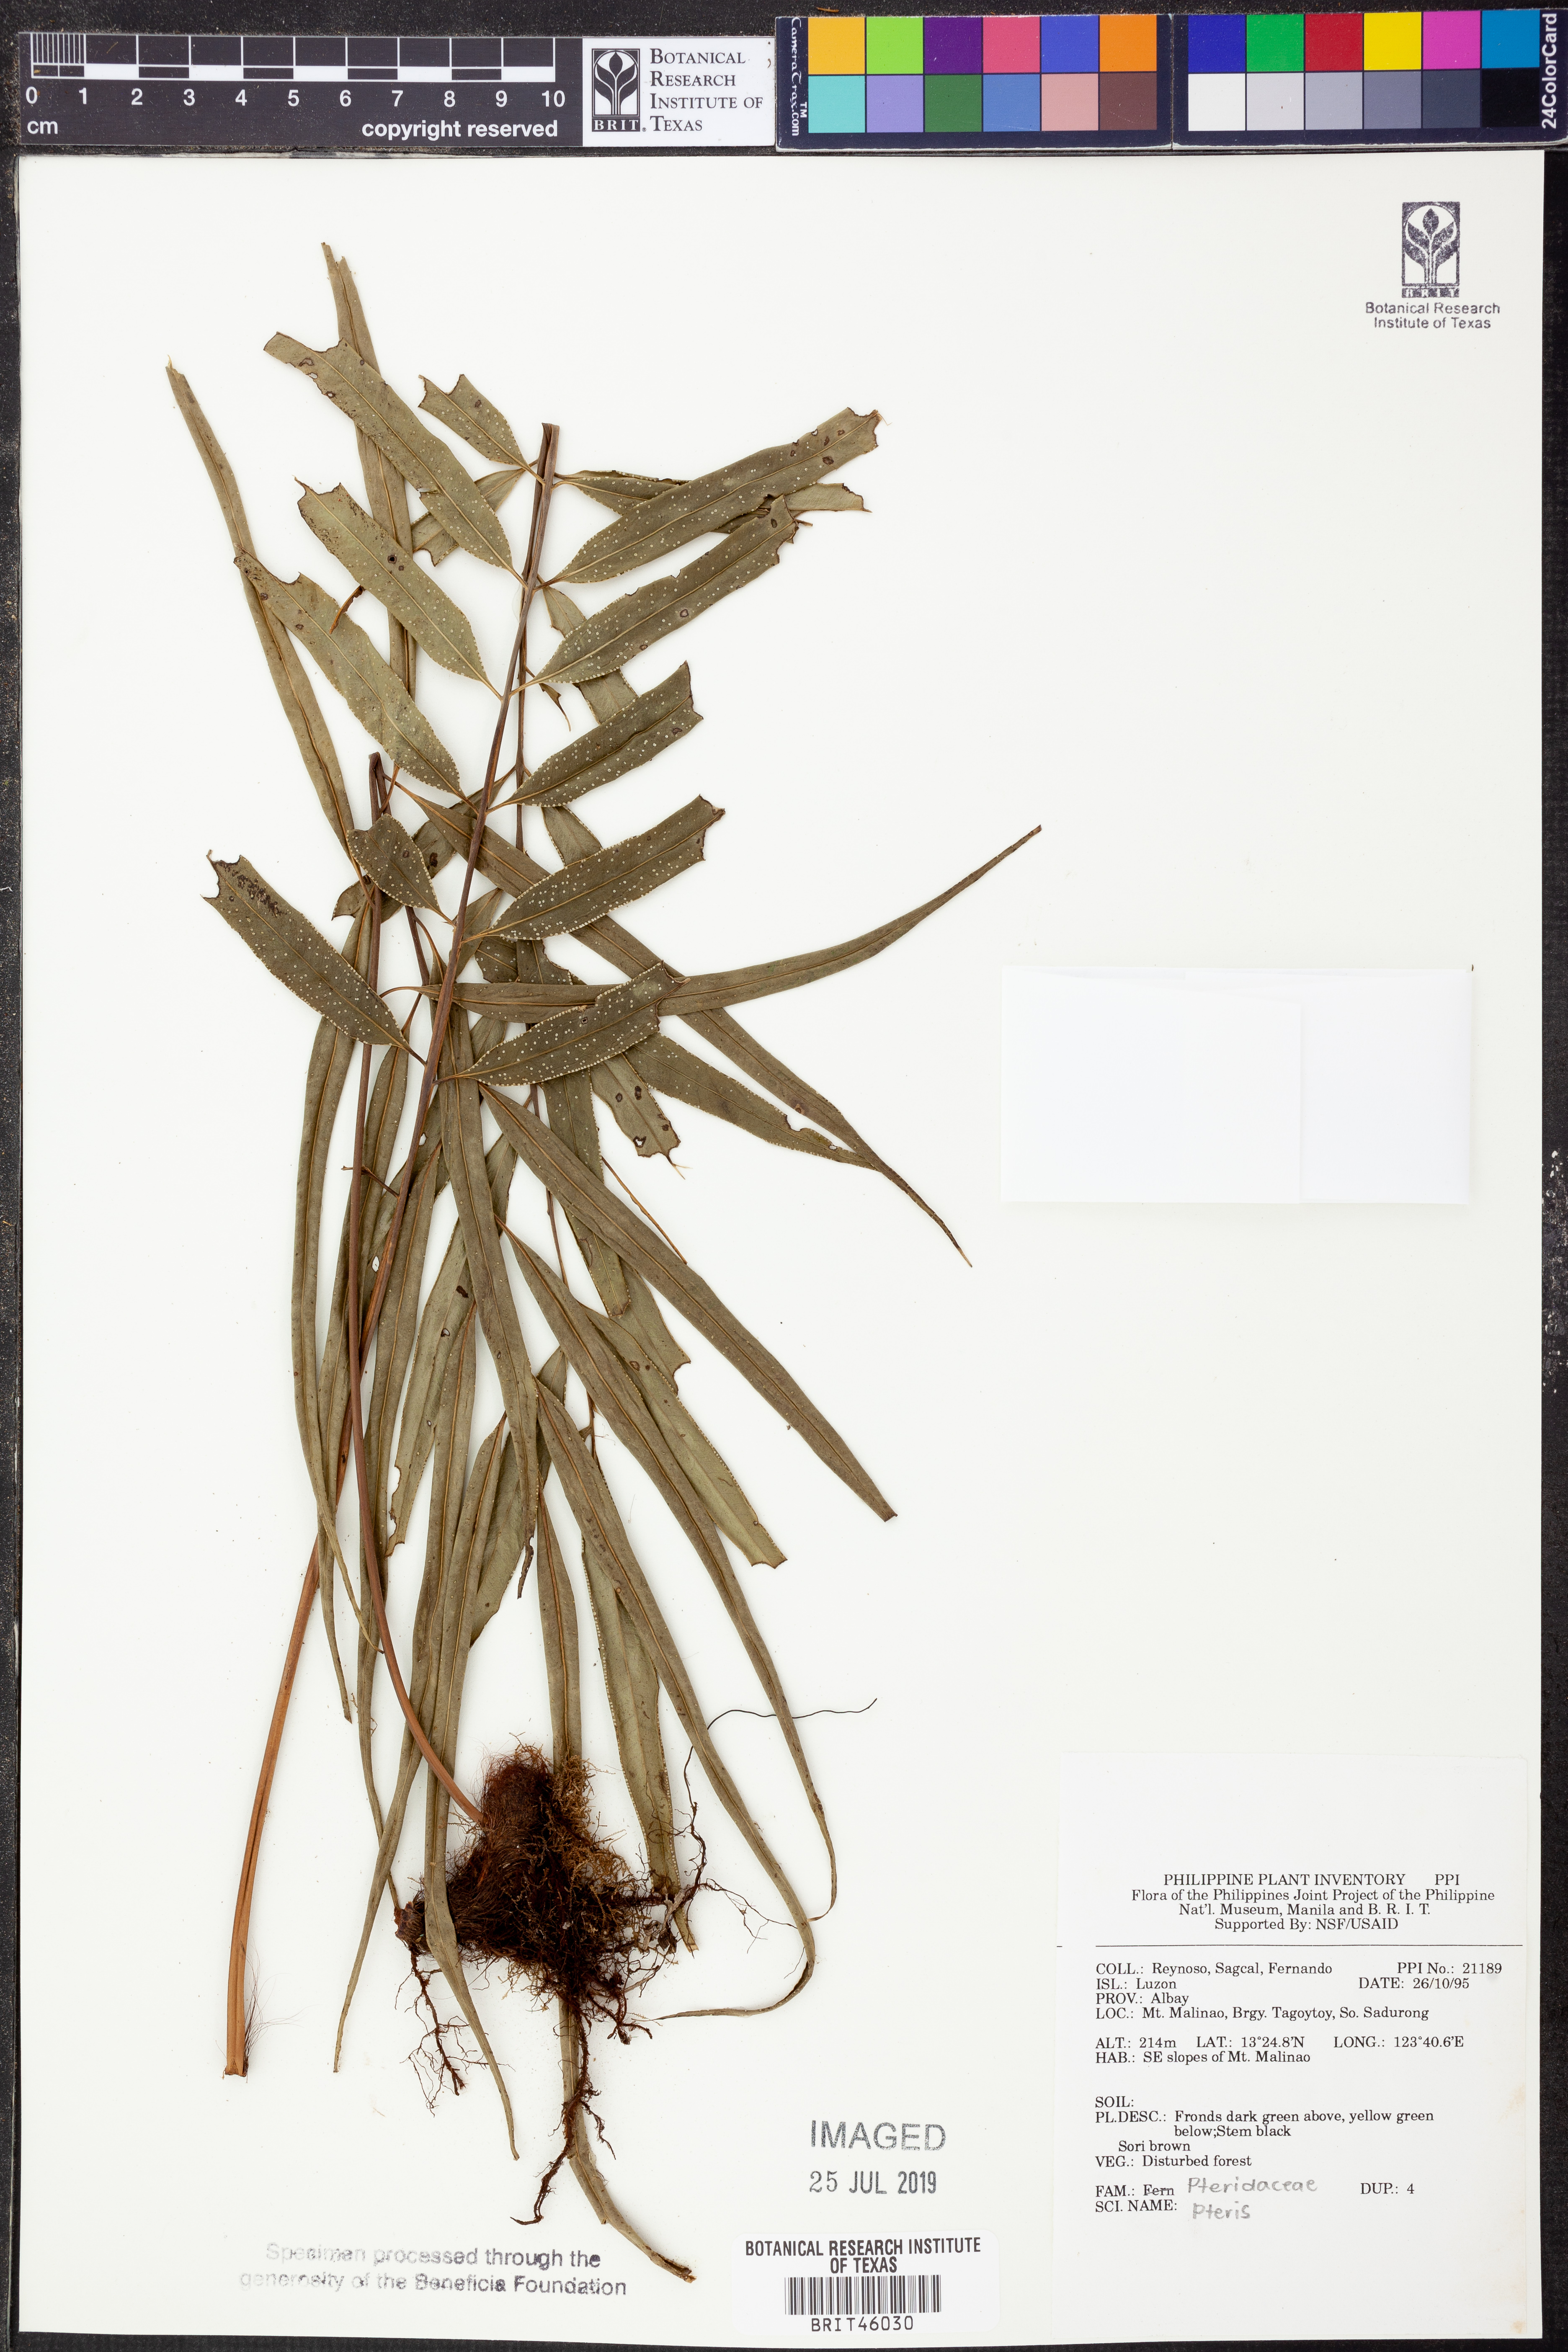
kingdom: Plantae
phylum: Tracheophyta
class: Polypodiopsida
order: Polypodiales
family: Pteridaceae
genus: Pteris
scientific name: Pteris
